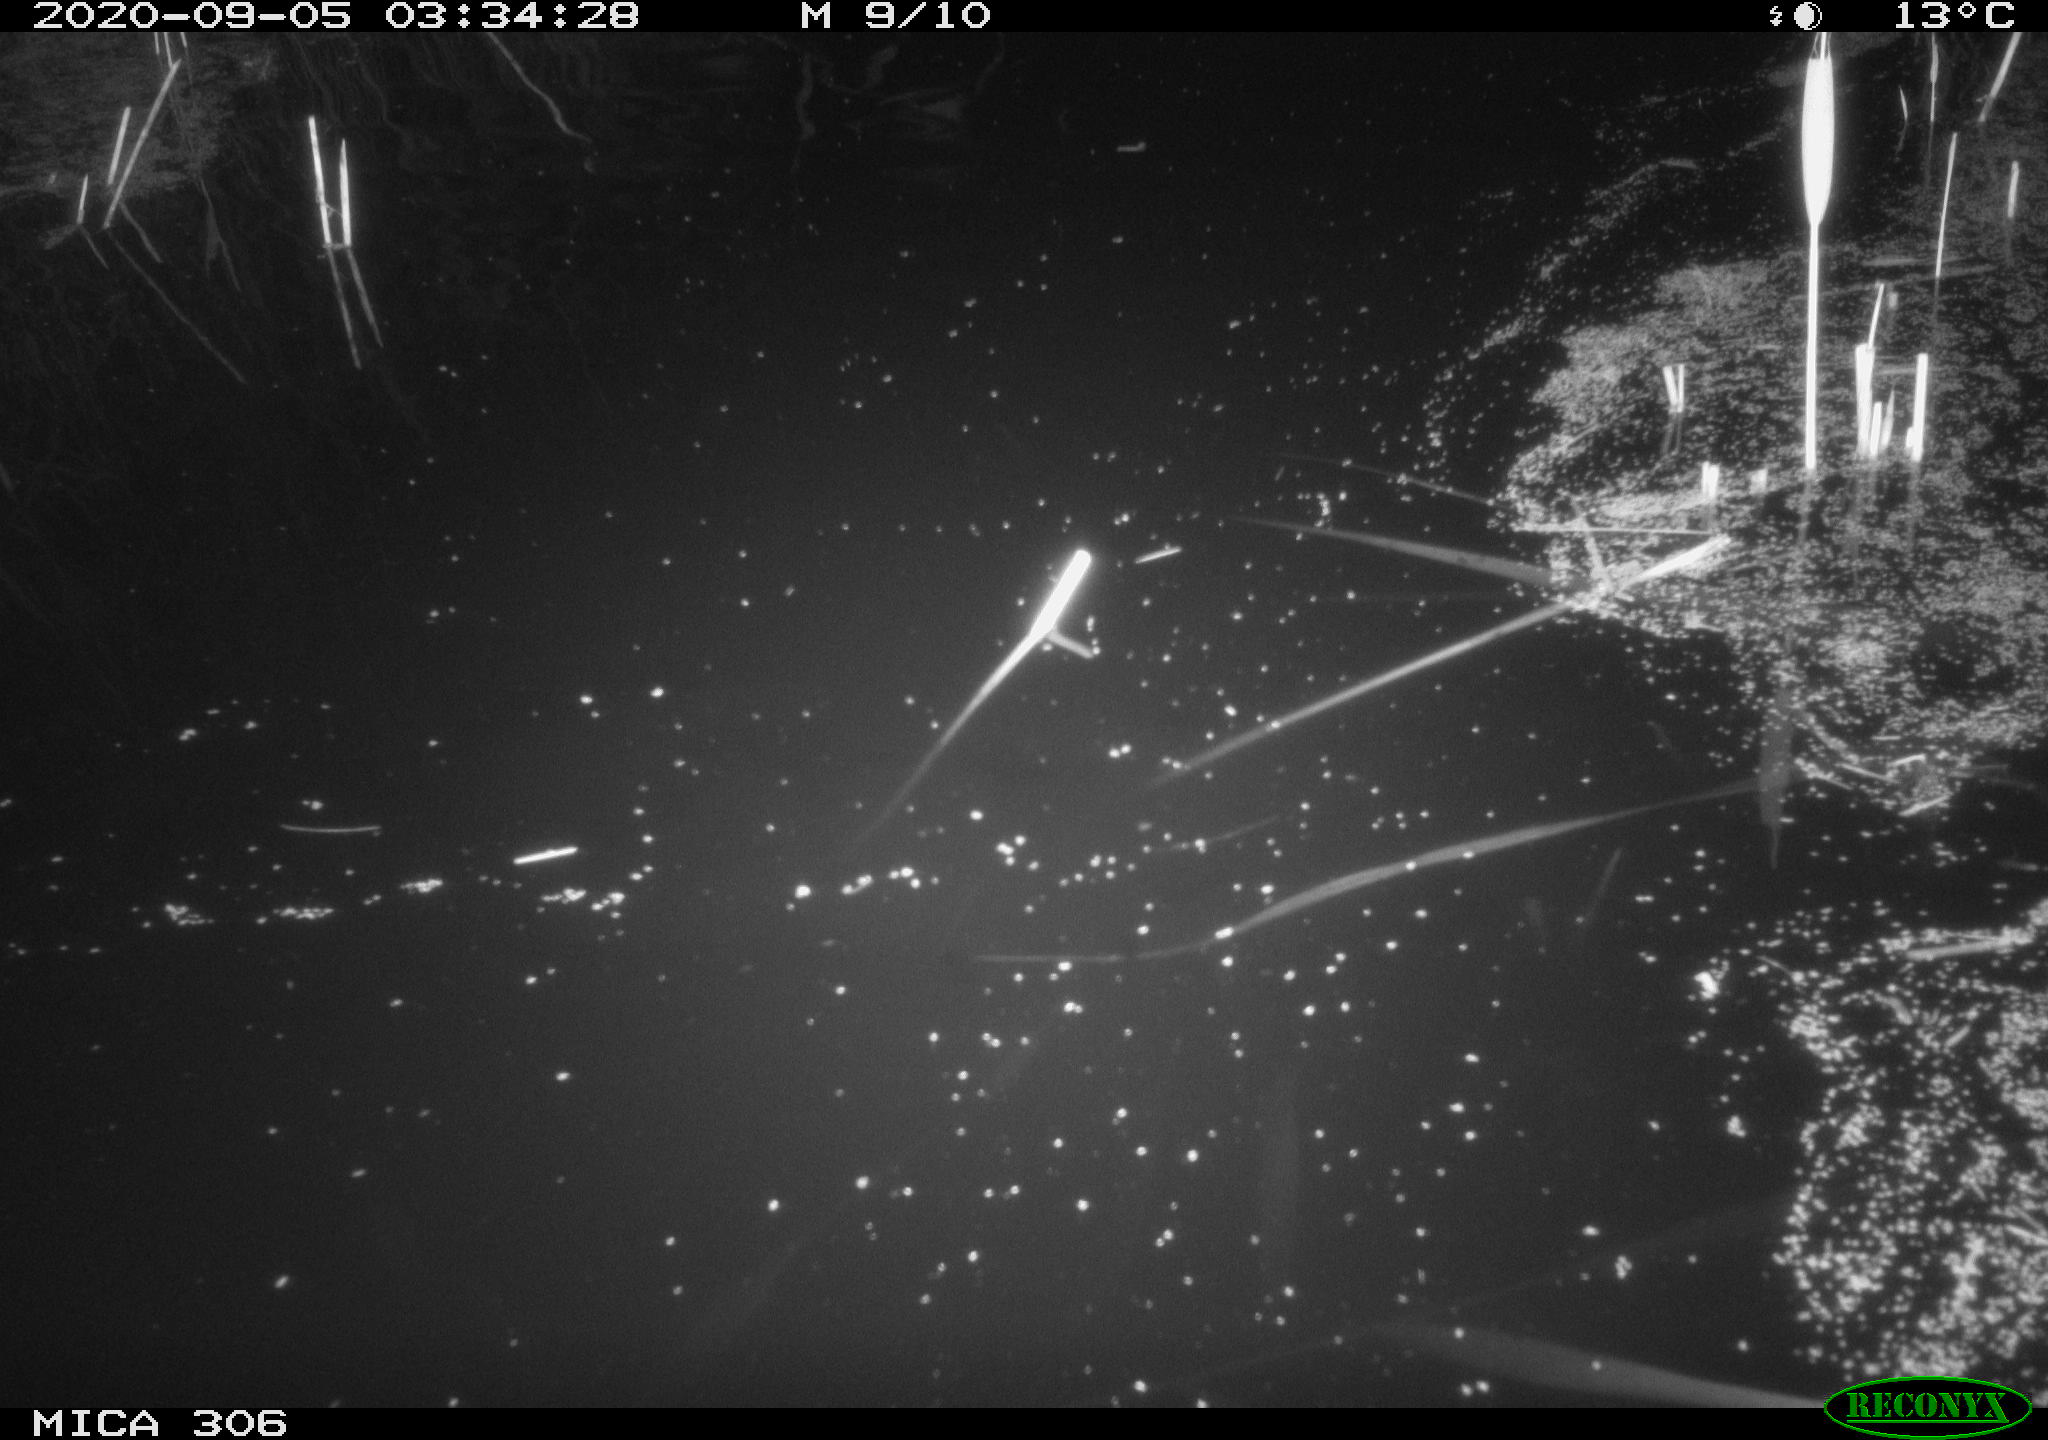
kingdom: Animalia
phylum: Chordata
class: Mammalia
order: Rodentia
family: Muridae
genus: Rattus
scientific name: Rattus norvegicus
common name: Brown rat
